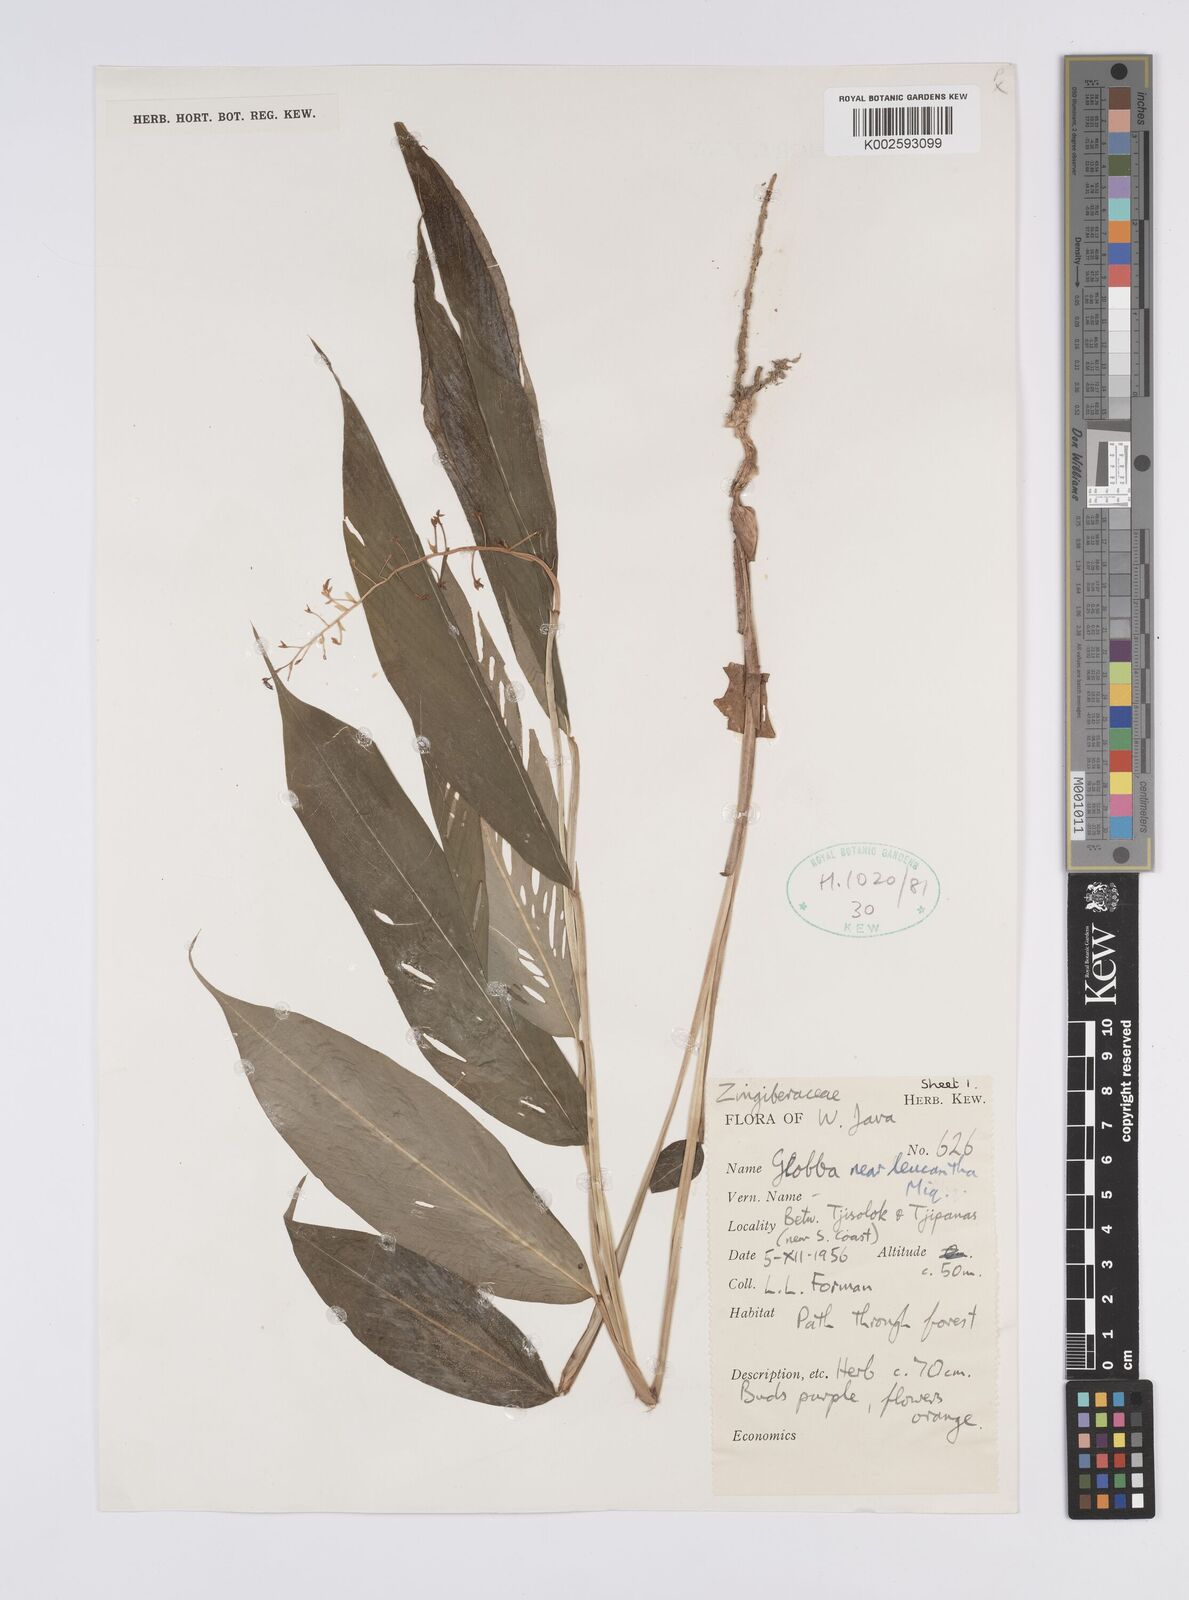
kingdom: Plantae
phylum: Tracheophyta
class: Liliopsida
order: Zingiberales
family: Zingiberaceae
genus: Globba
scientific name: Globba leucantha
